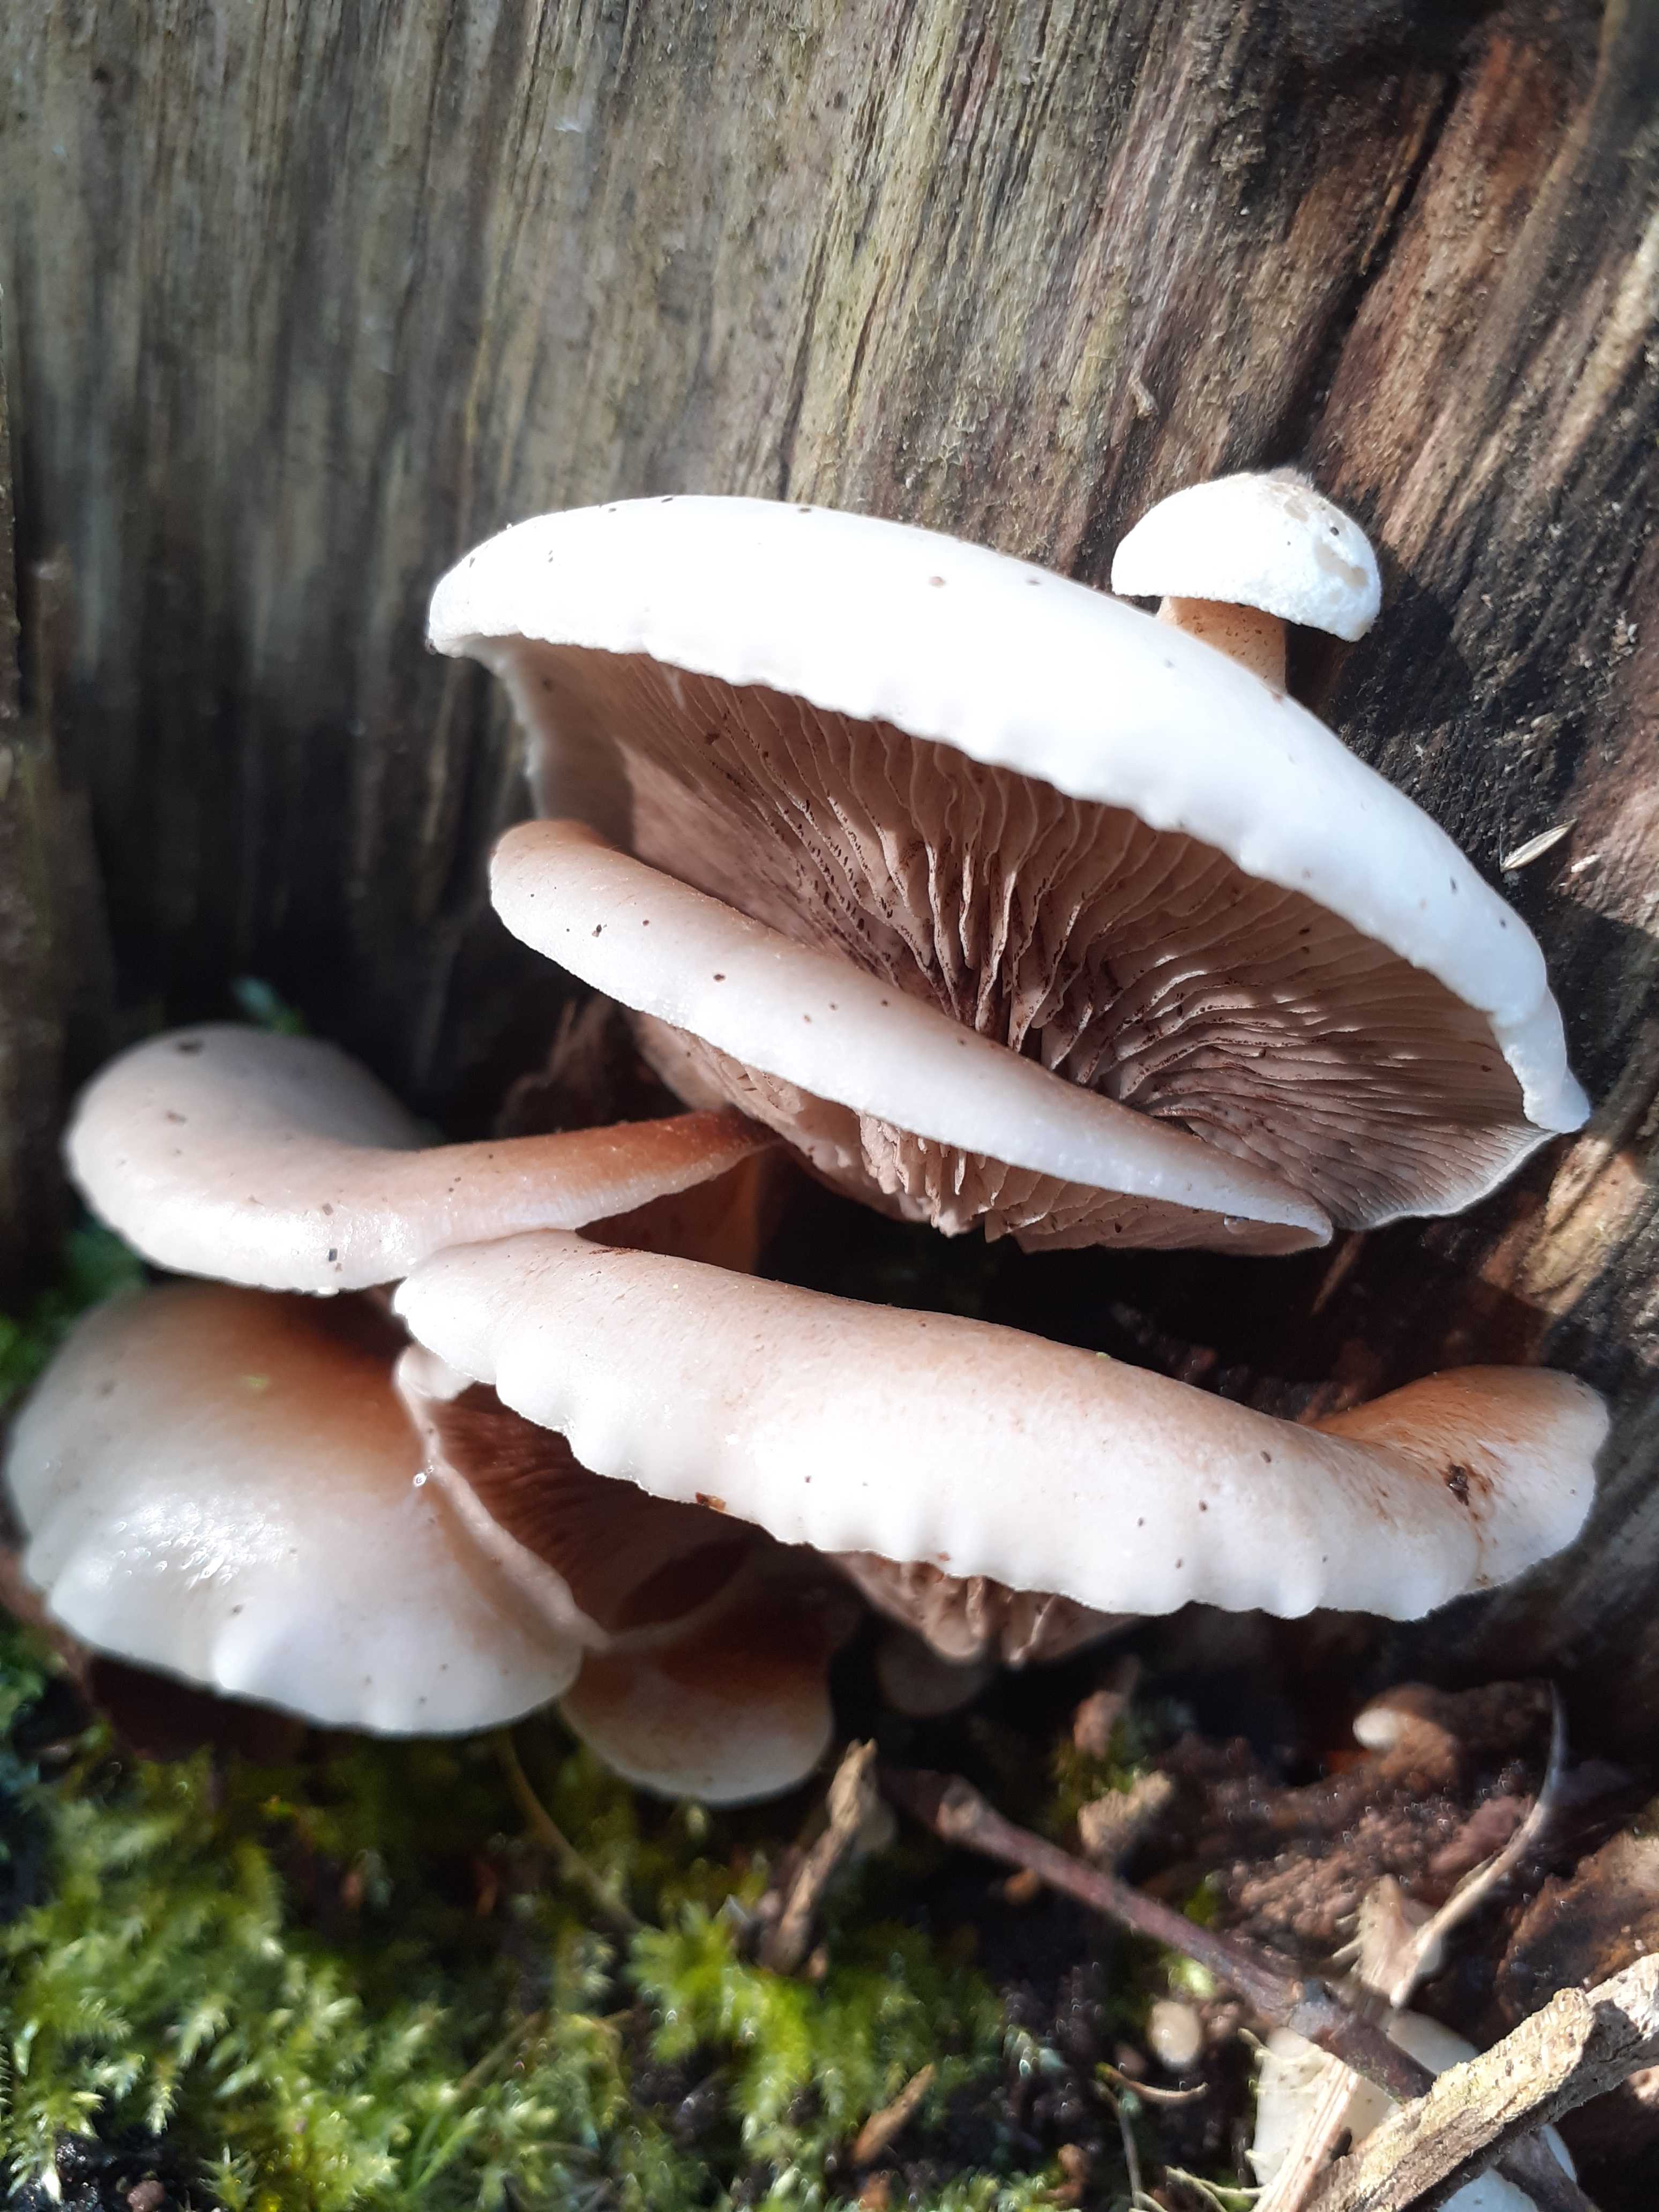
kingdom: Fungi
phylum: Basidiomycota
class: Agaricomycetes
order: Agaricales
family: Crepidotaceae
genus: Crepidotus
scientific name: Crepidotus mollis
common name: blød muslingesvamp
